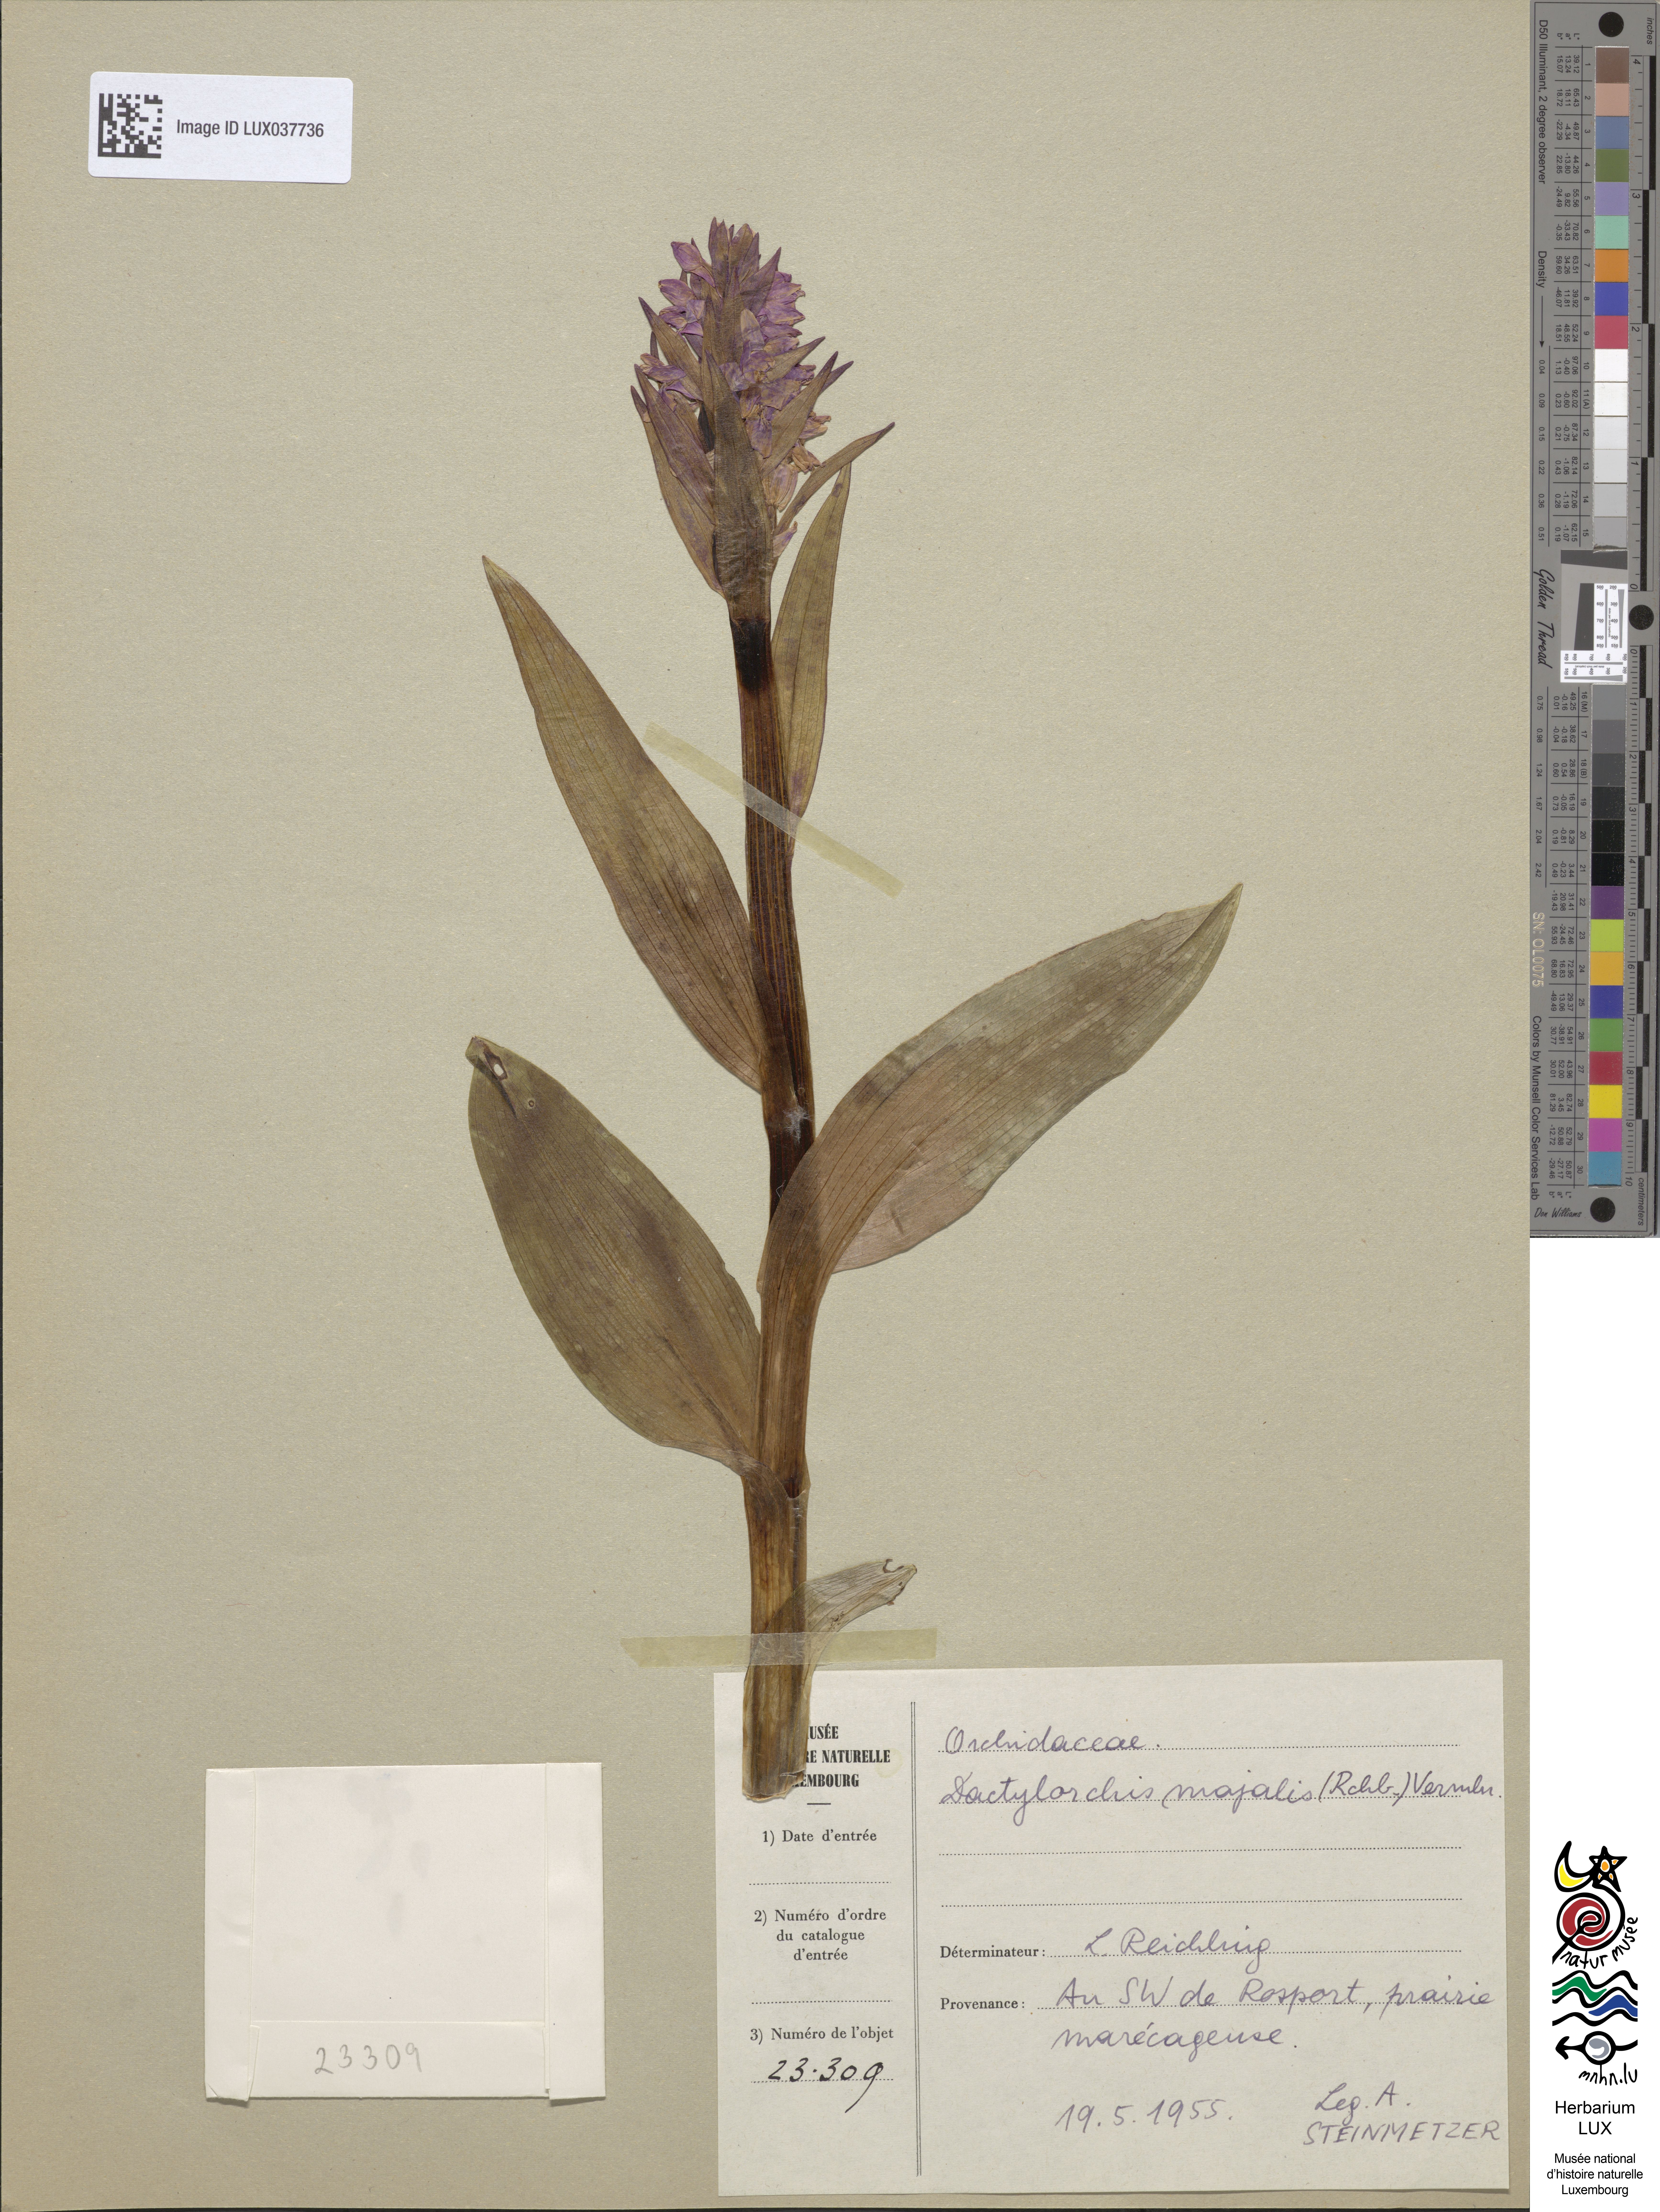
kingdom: Plantae
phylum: Tracheophyta
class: Liliopsida
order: Asparagales
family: Orchidaceae
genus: Dactylorhiza
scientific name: Dactylorhiza incarnata
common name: Early marsh-orchid
